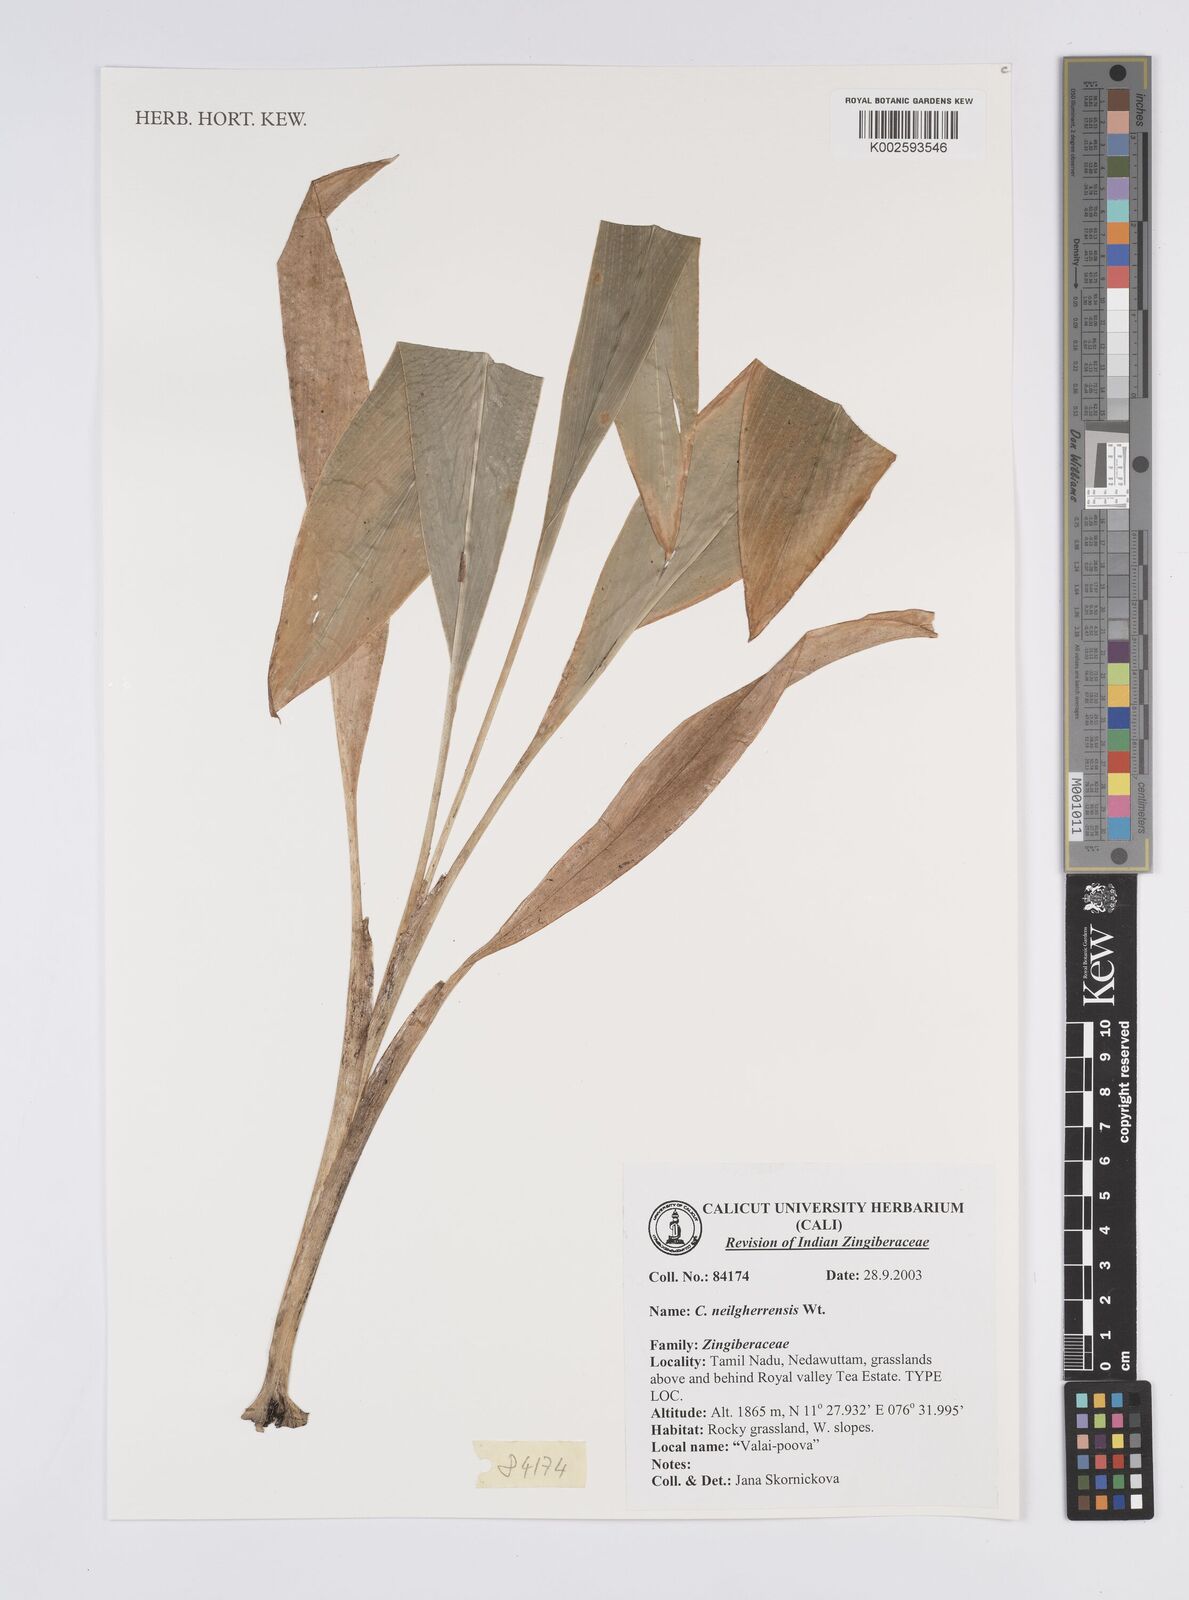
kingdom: Plantae
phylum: Tracheophyta
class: Liliopsida
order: Zingiberales
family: Zingiberaceae
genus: Curcuma
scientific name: Curcuma neilgherrensis
